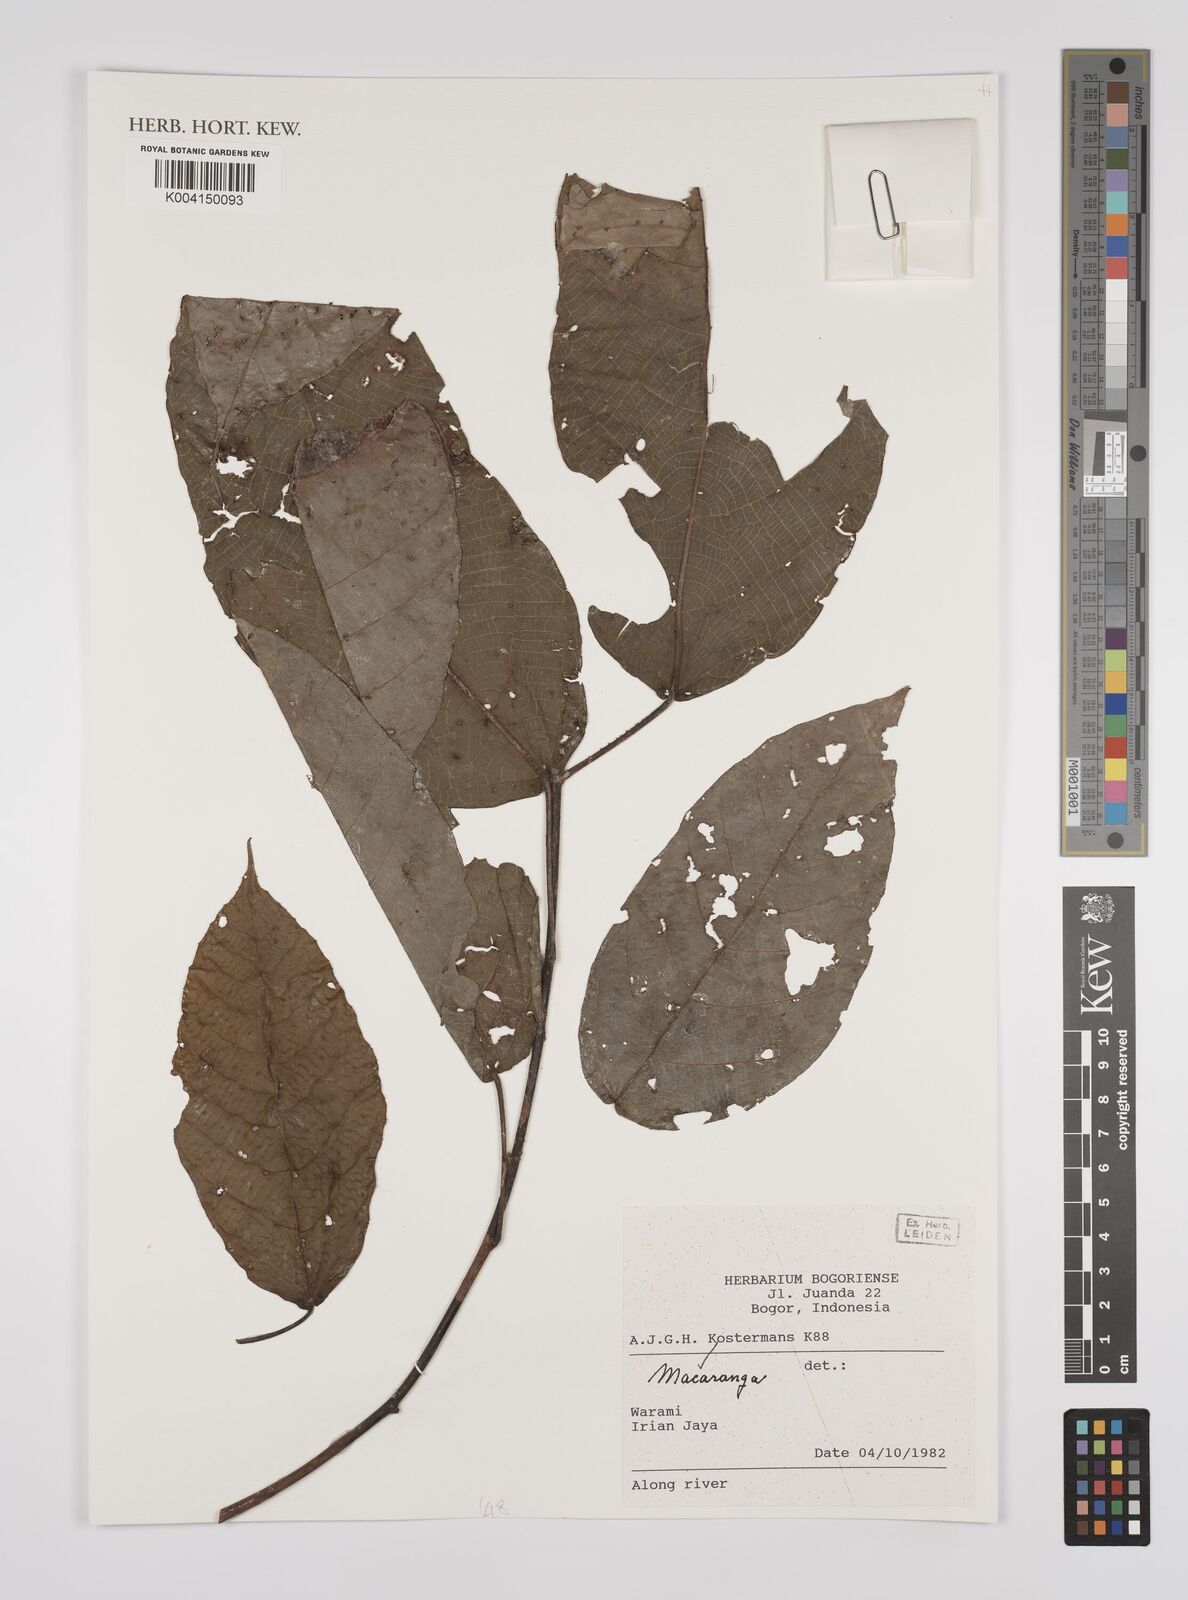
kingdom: Plantae
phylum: Tracheophyta
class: Magnoliopsida
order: Malpighiales
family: Euphorbiaceae
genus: Macaranga
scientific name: Macaranga
